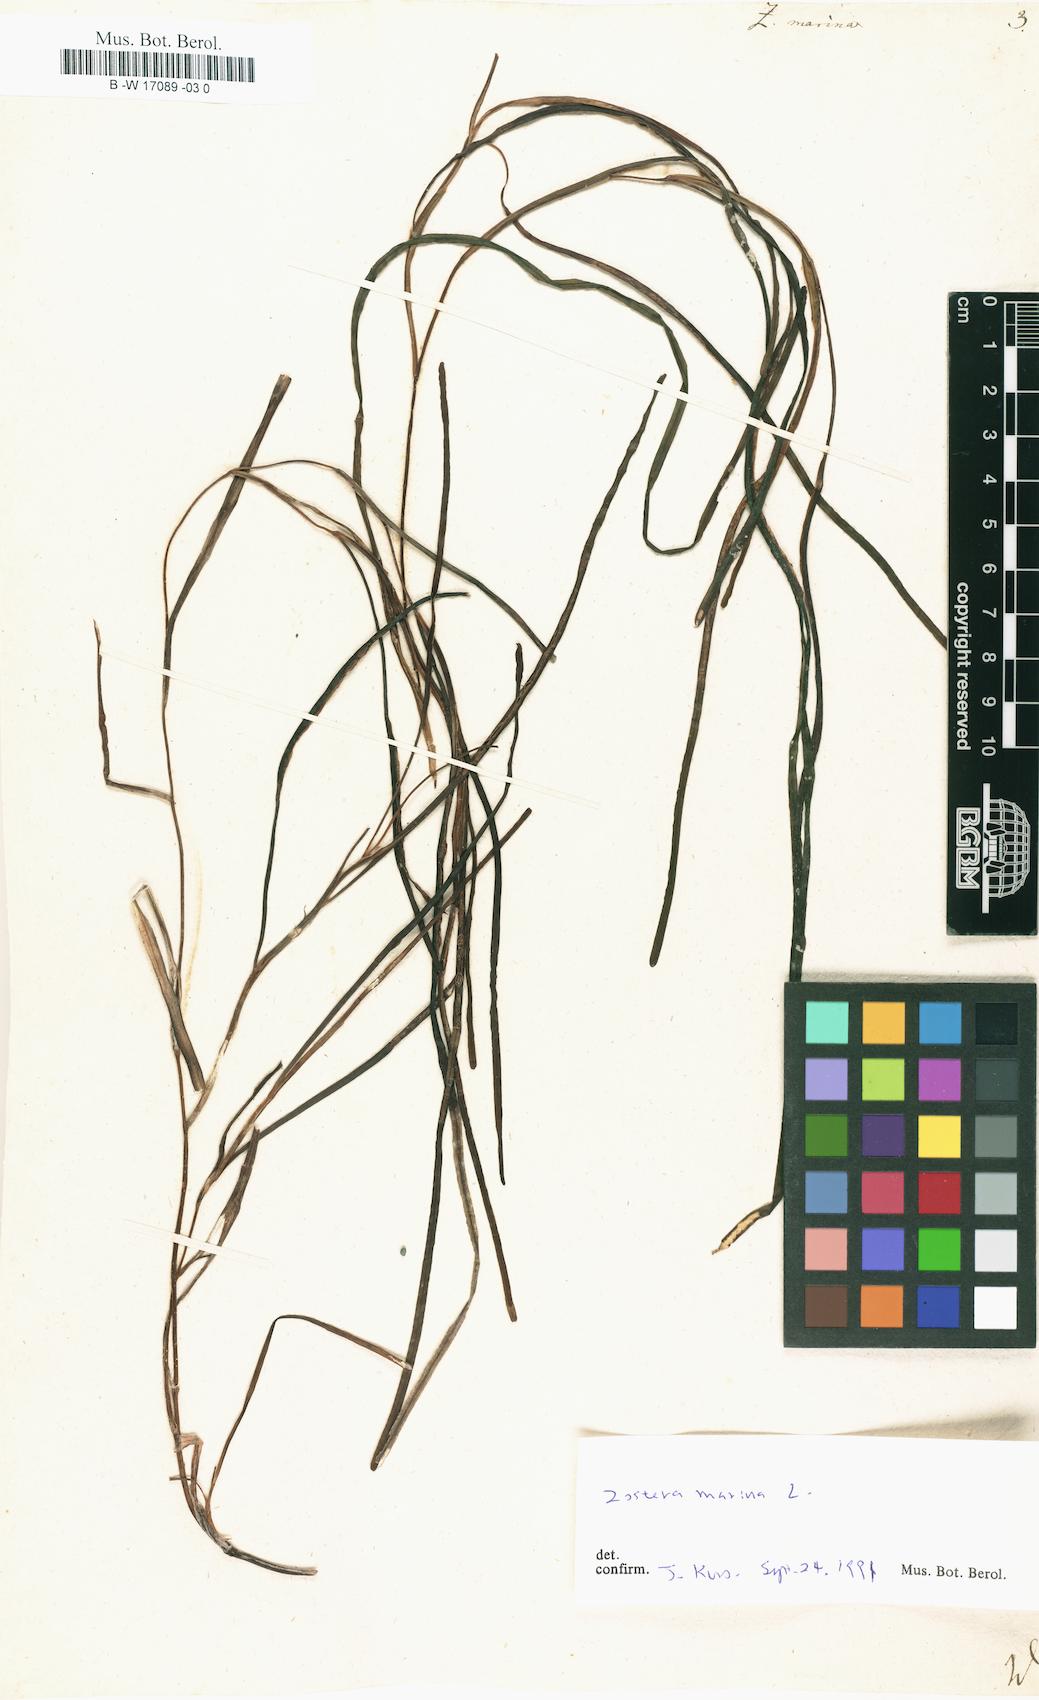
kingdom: Plantae
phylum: Tracheophyta
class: Liliopsida
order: Alismatales
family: Zosteraceae
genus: Zostera
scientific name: Zostera marina
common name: Eelgrass
